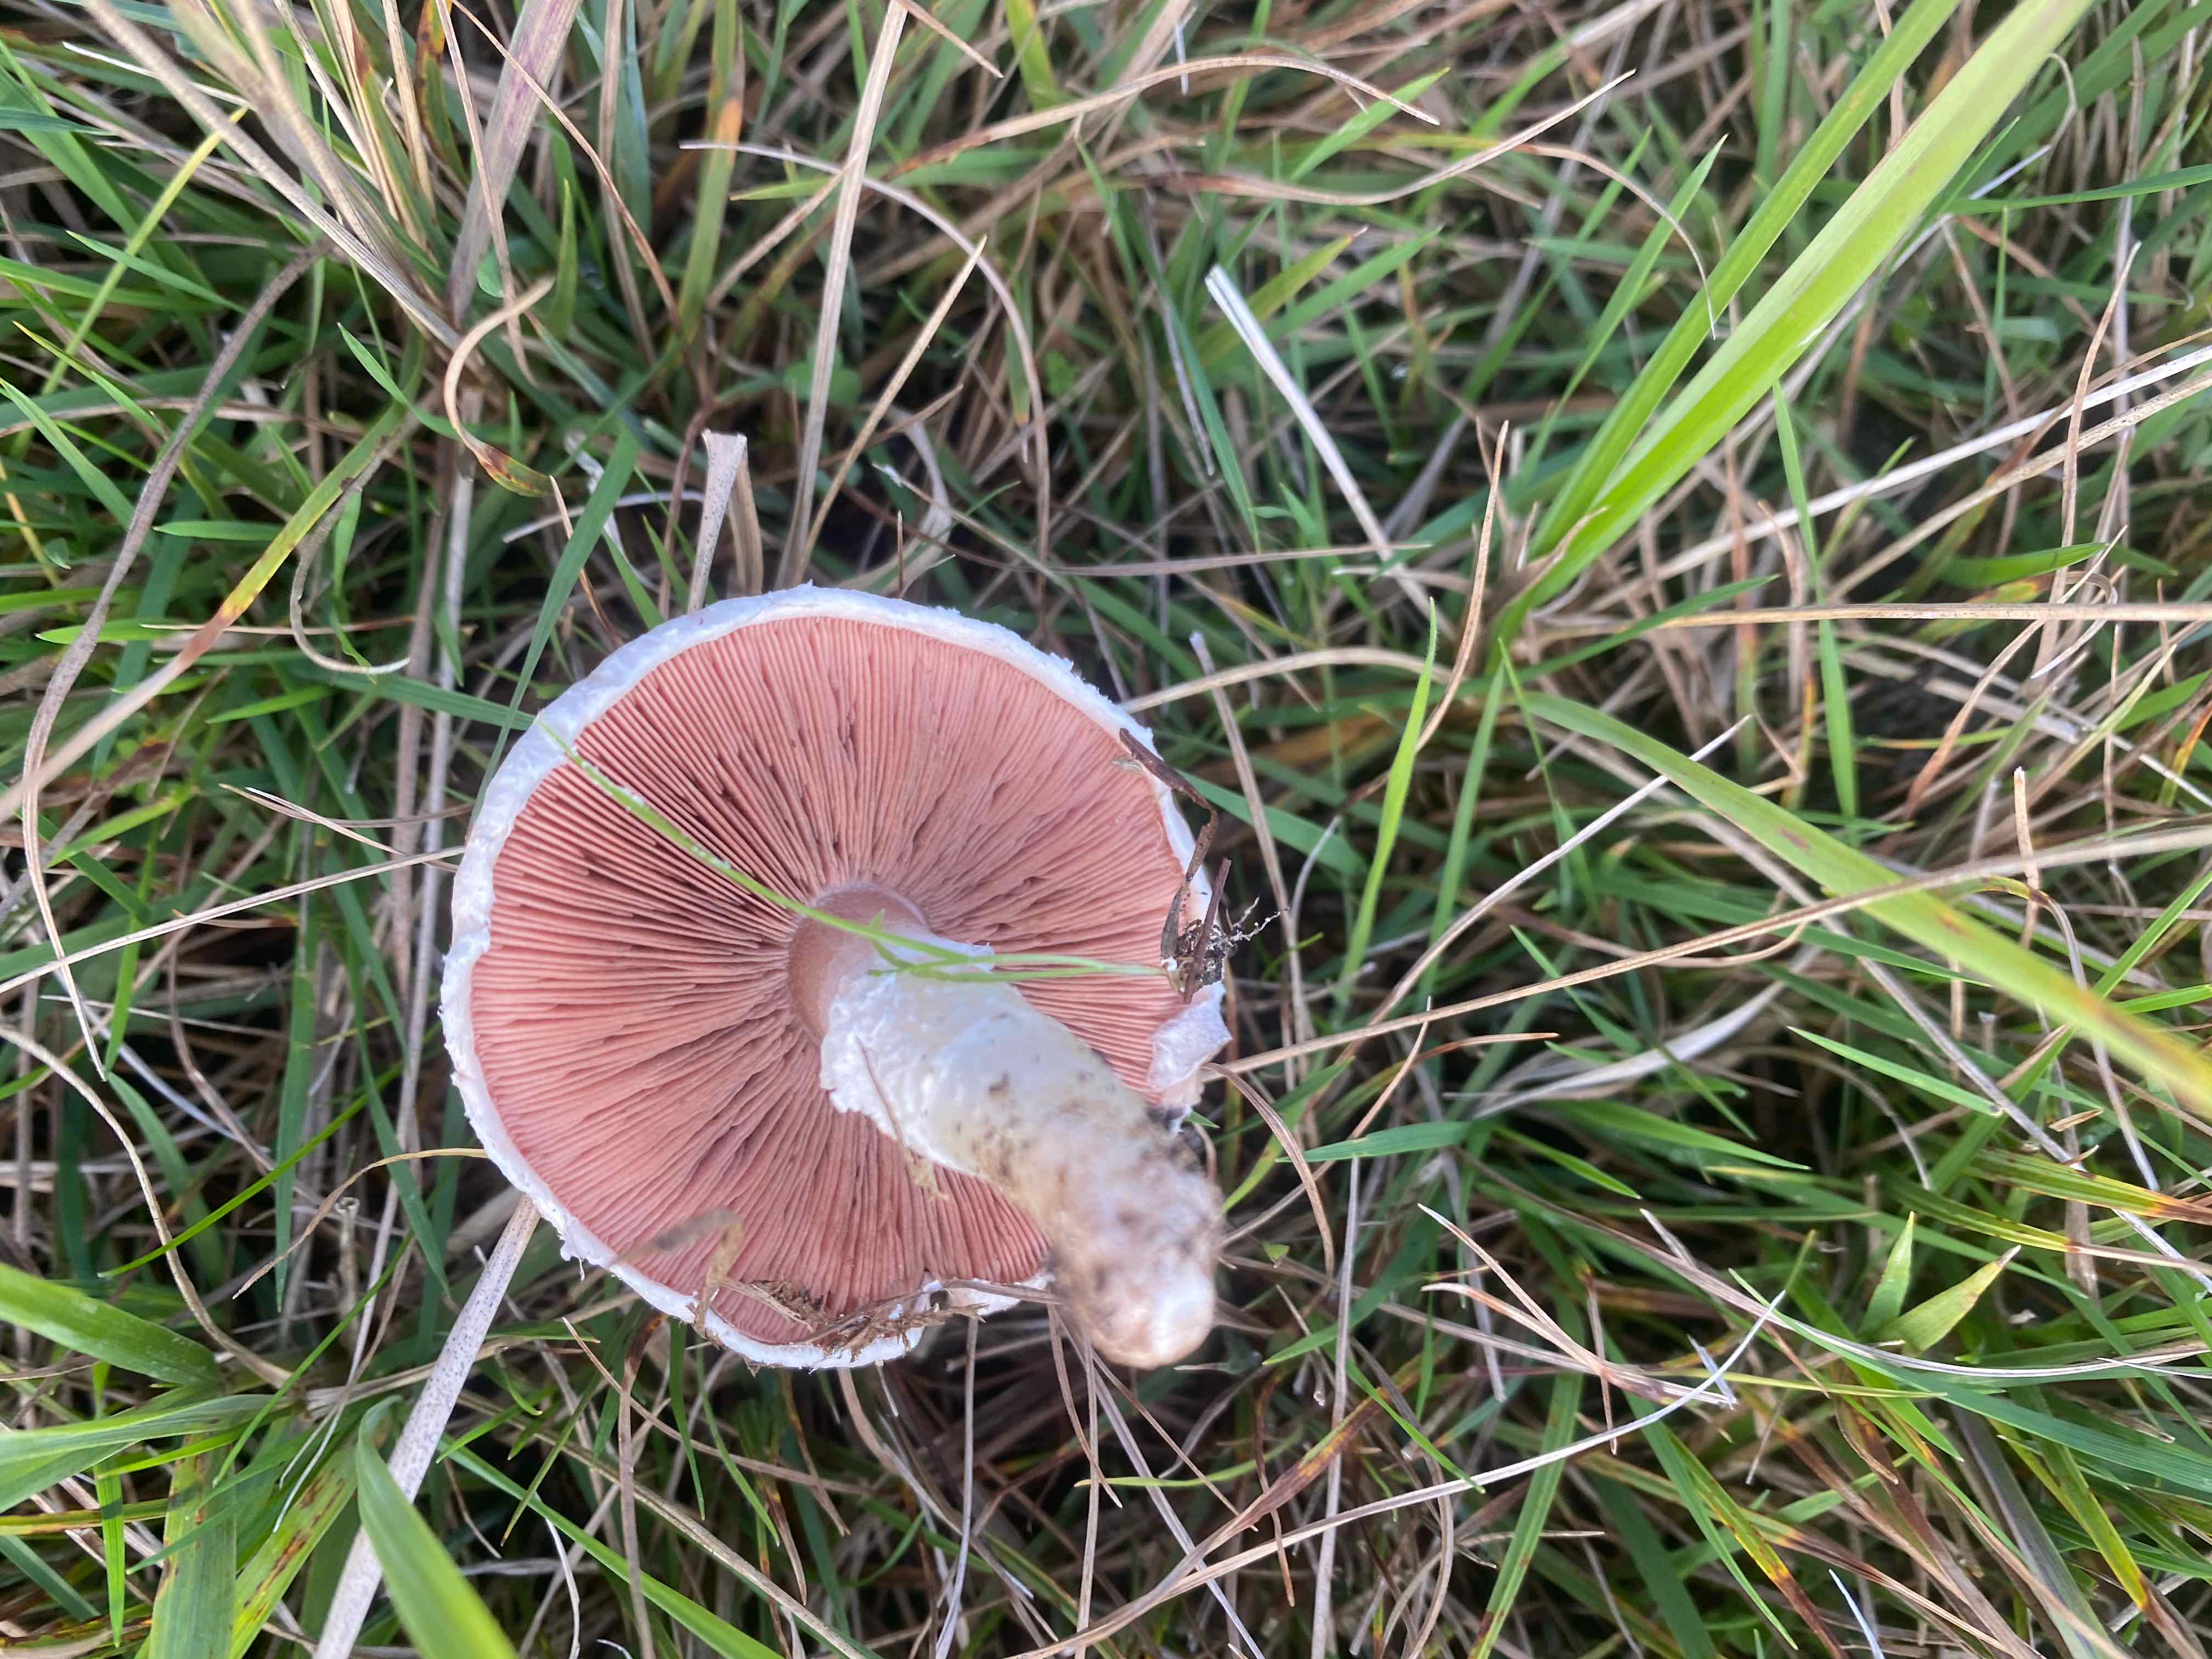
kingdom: Fungi
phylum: Basidiomycota
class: Agaricomycetes
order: Agaricales
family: Agaricaceae
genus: Agaricus
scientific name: Agaricus campestris
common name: mark-champignon
